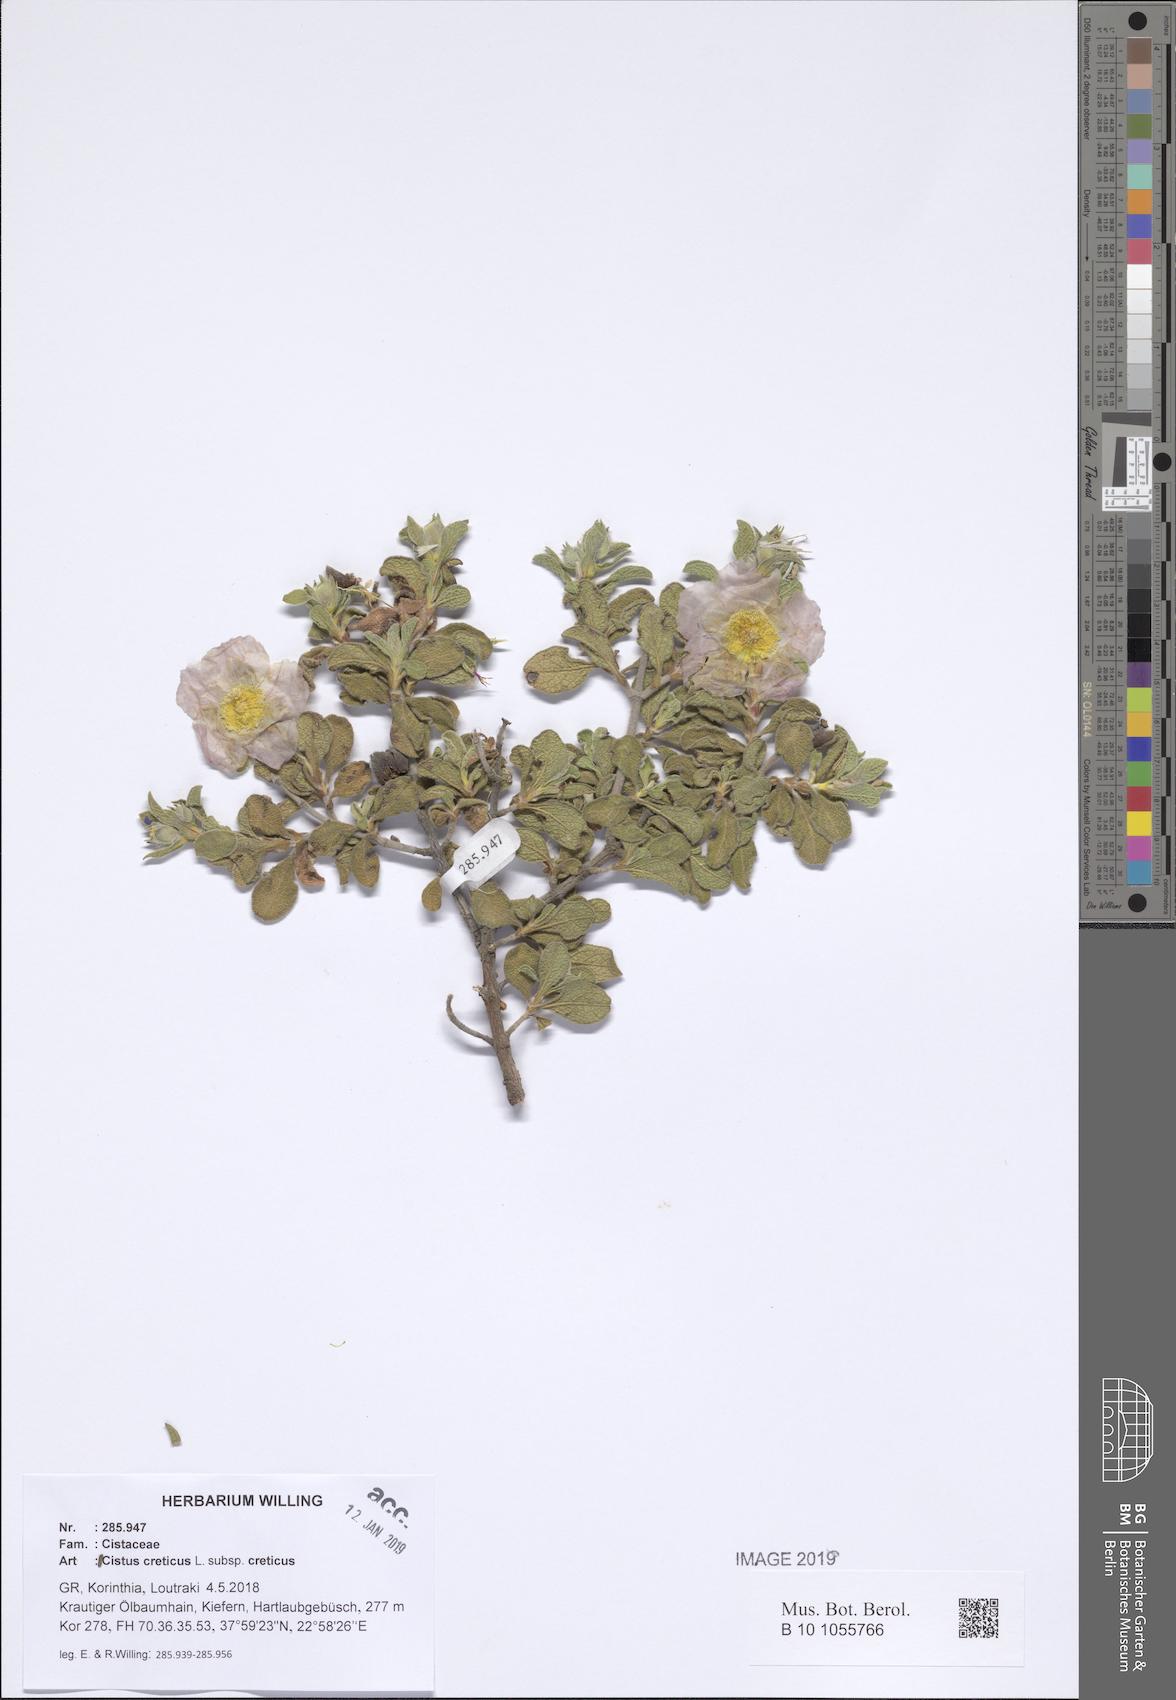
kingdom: Plantae
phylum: Tracheophyta
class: Magnoliopsida
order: Malvales
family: Cistaceae
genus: Cistus
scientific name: Cistus creticus
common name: Cretan rockrose
